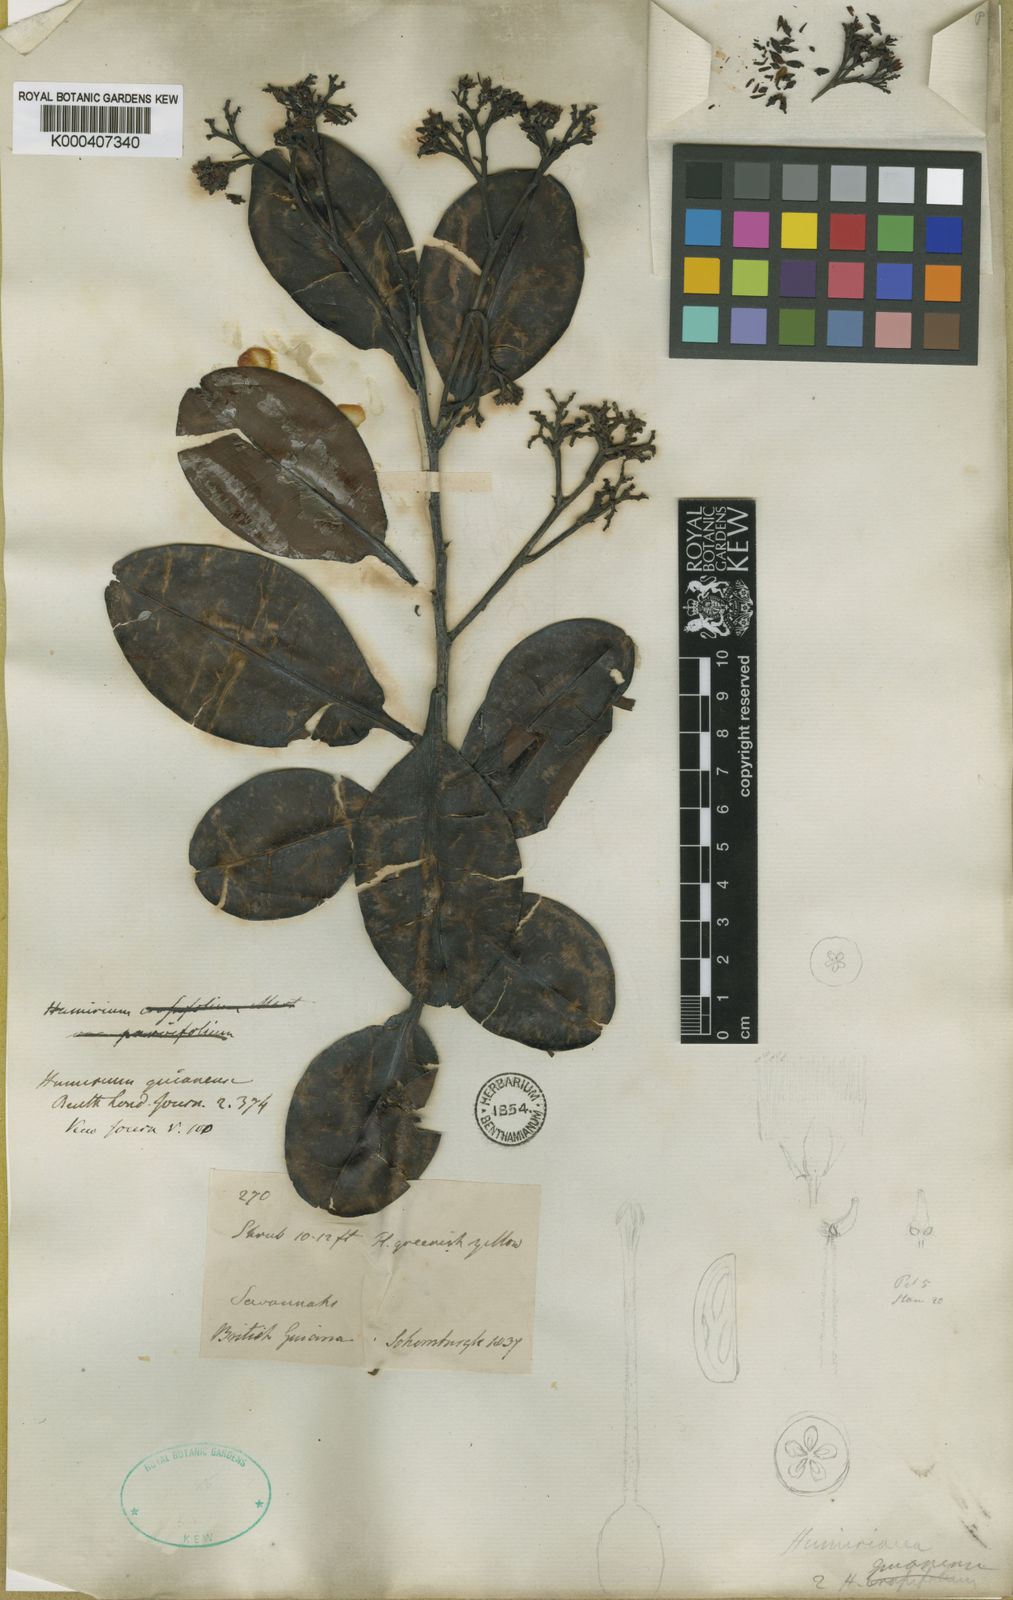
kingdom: Plantae
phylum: Tracheophyta
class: Magnoliopsida
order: Malpighiales
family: Humiriaceae
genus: Humiria
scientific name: Humiria balsamifera
